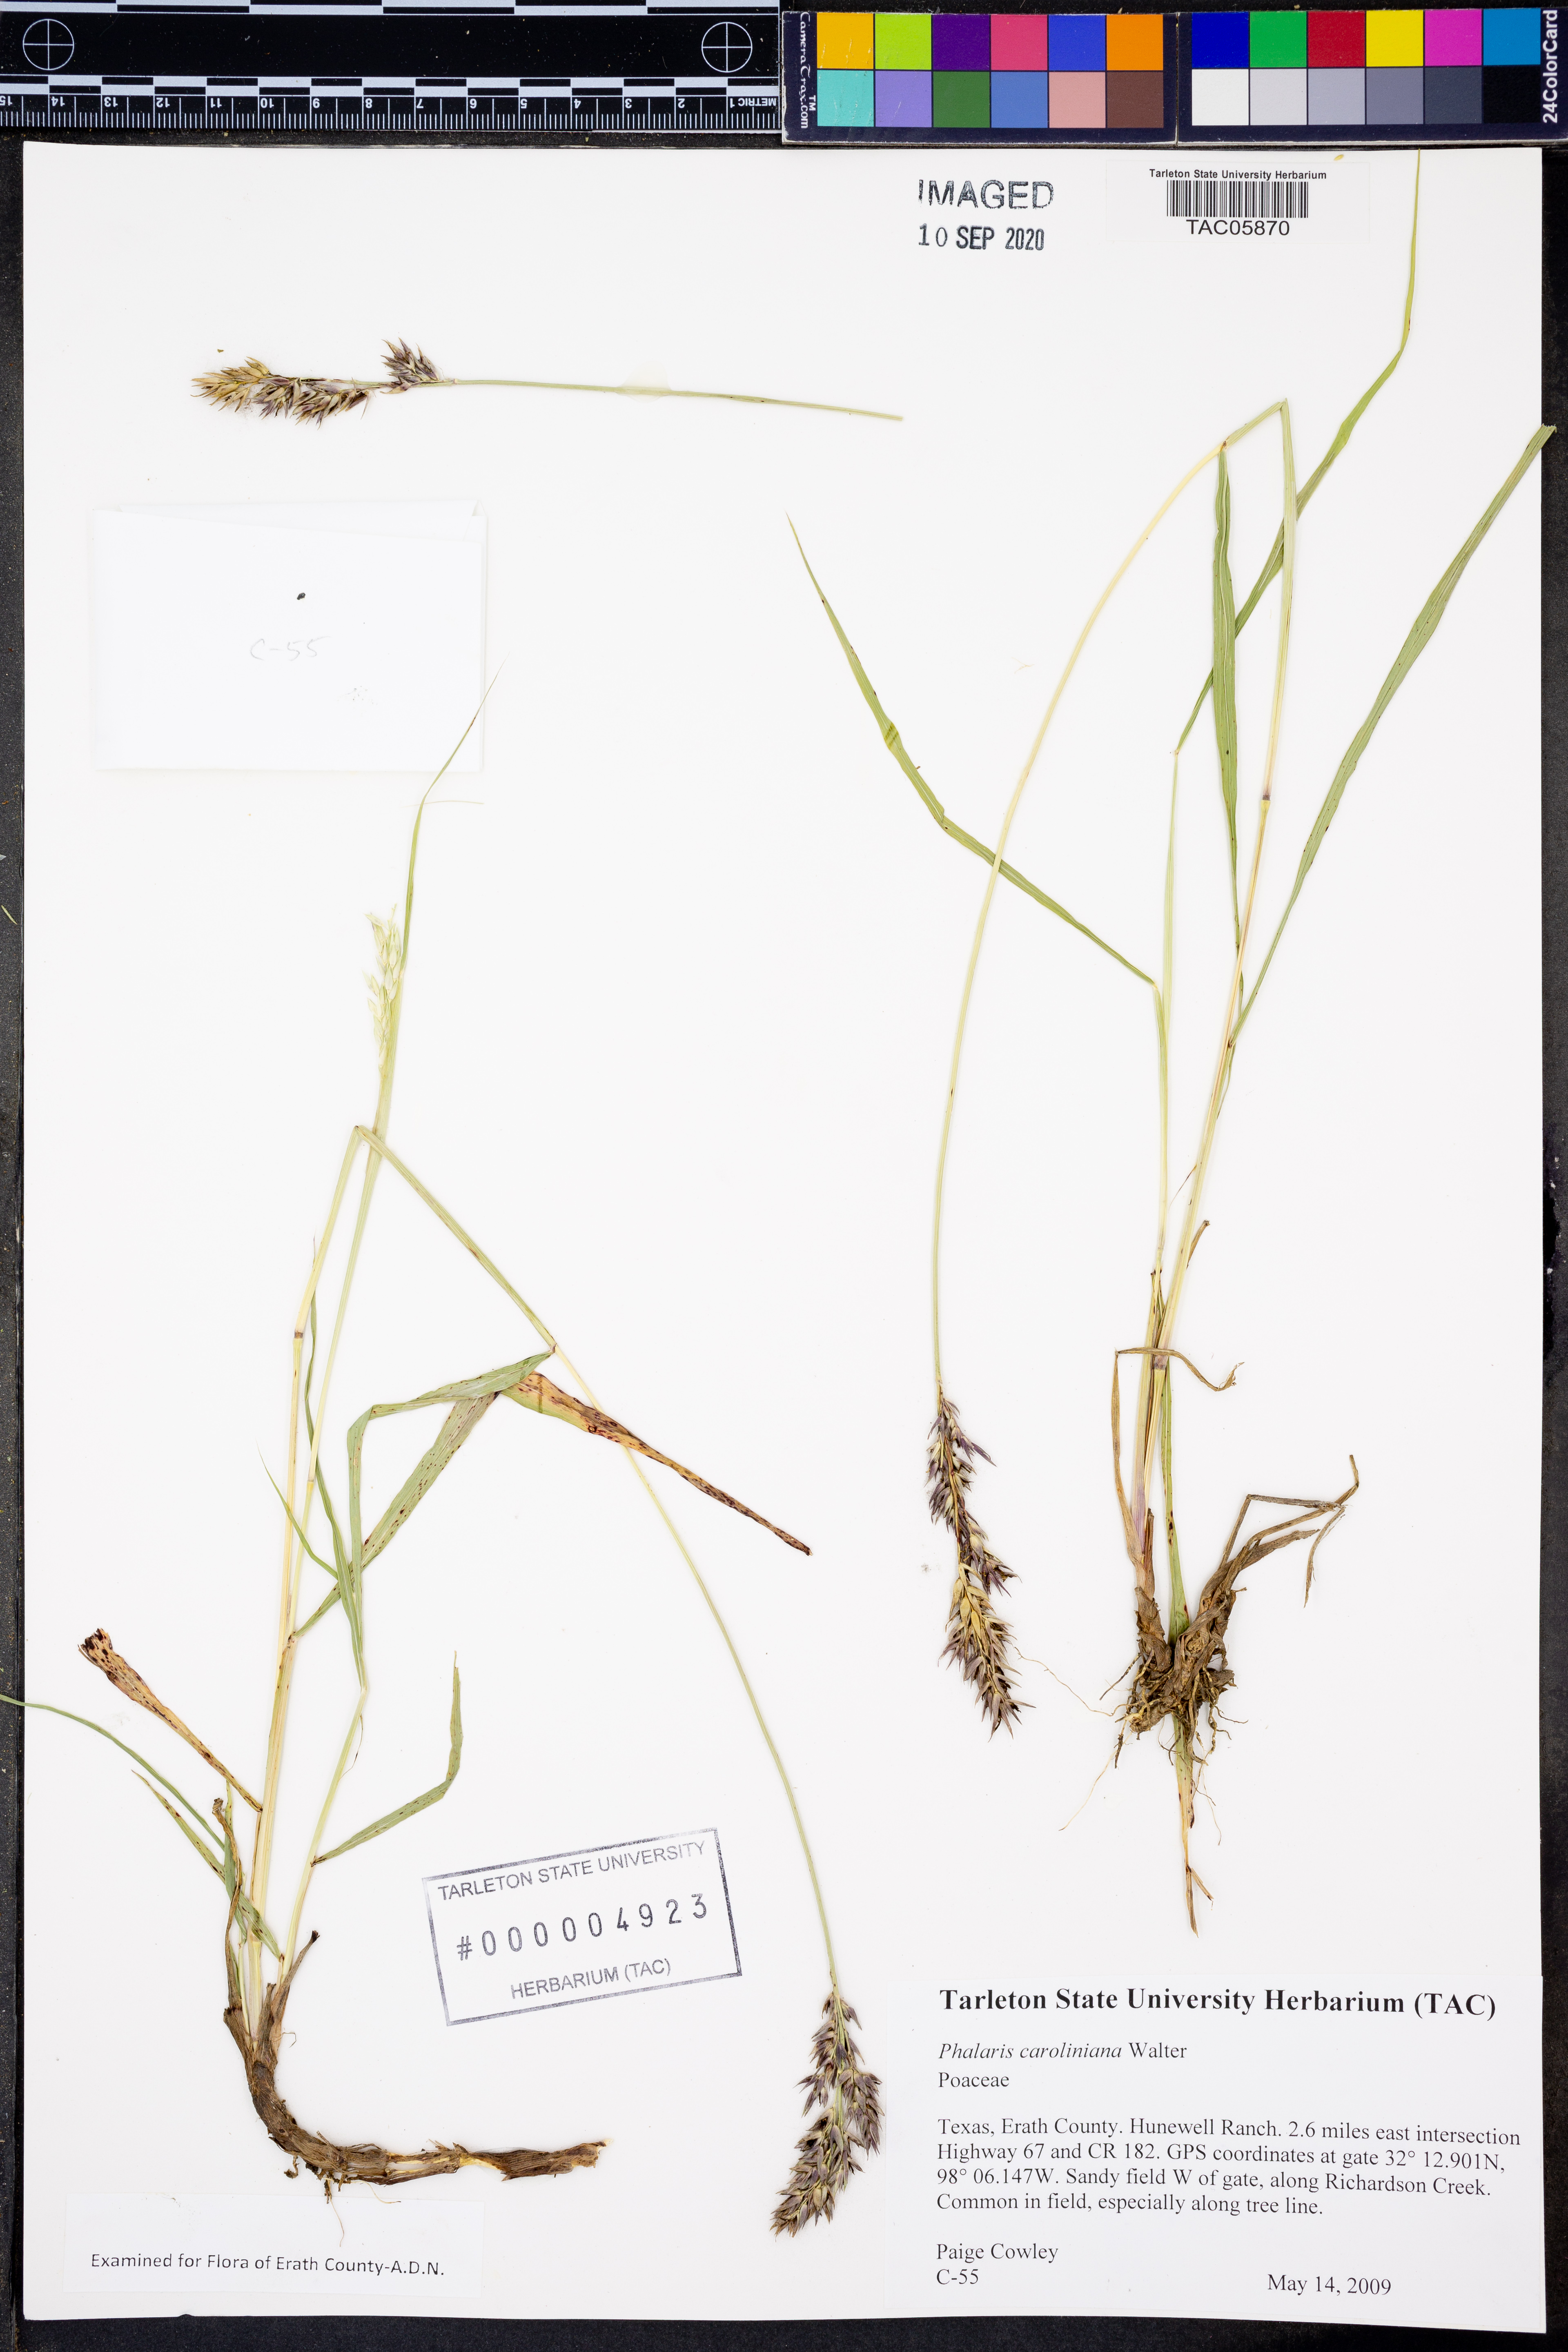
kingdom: Plantae
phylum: Tracheophyta
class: Liliopsida
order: Poales
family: Poaceae
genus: Phalaris
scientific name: Phalaris caroliniana
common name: May grass
